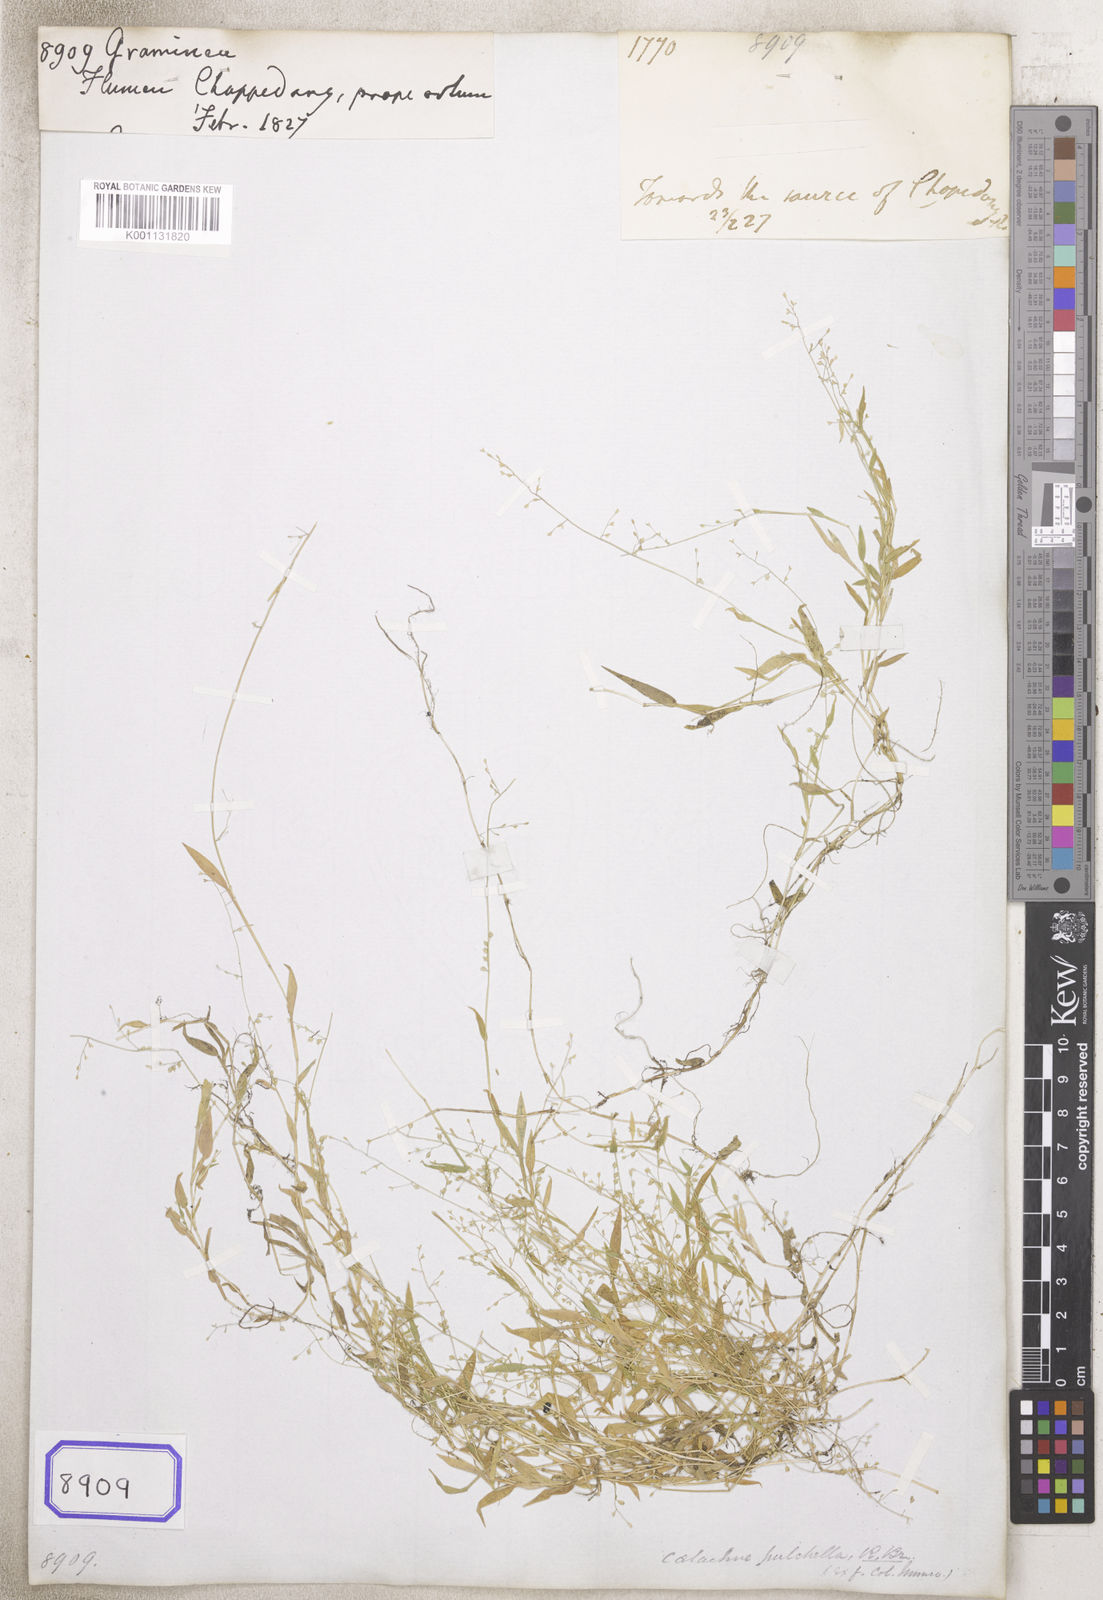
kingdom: Plantae
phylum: Tracheophyta
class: Liliopsida
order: Poales
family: Poaceae
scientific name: Poaceae
